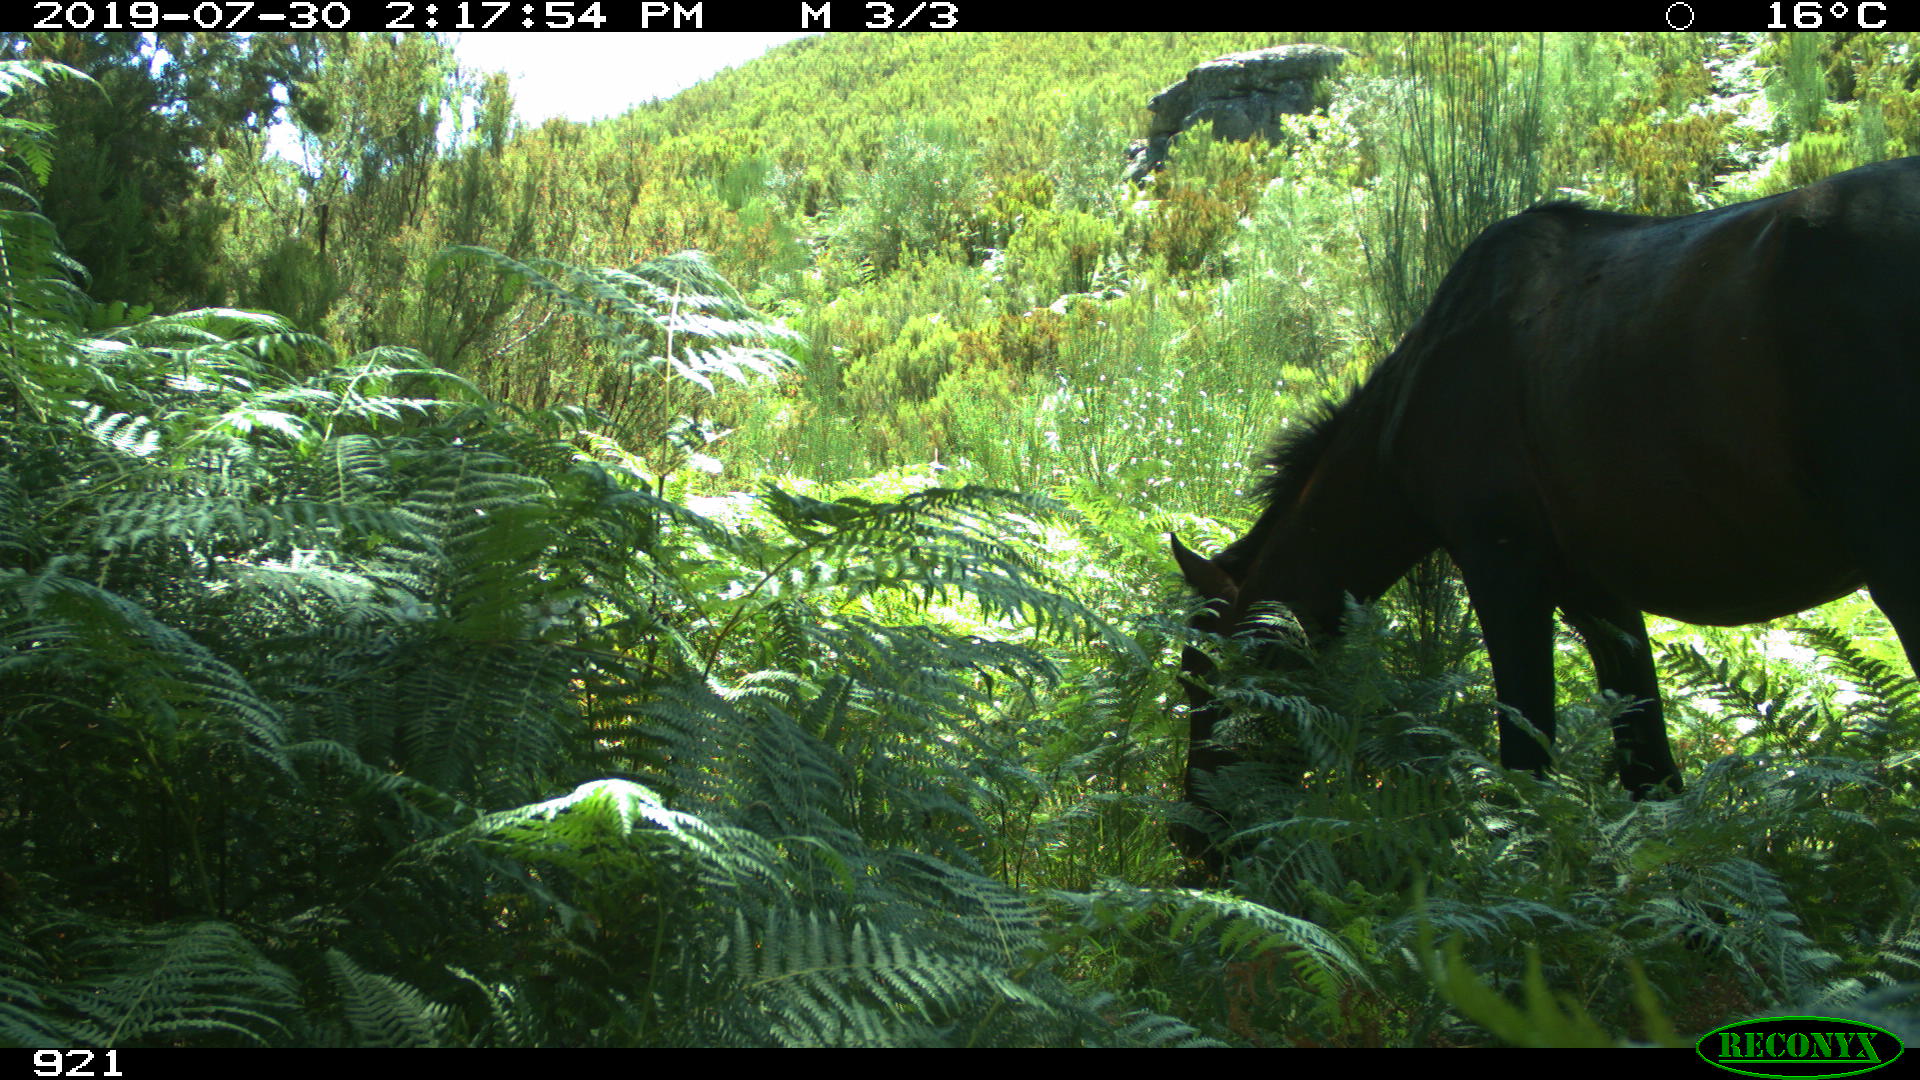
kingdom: Animalia
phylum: Chordata
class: Mammalia
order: Perissodactyla
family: Equidae
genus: Equus
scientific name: Equus caballus
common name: Horse
